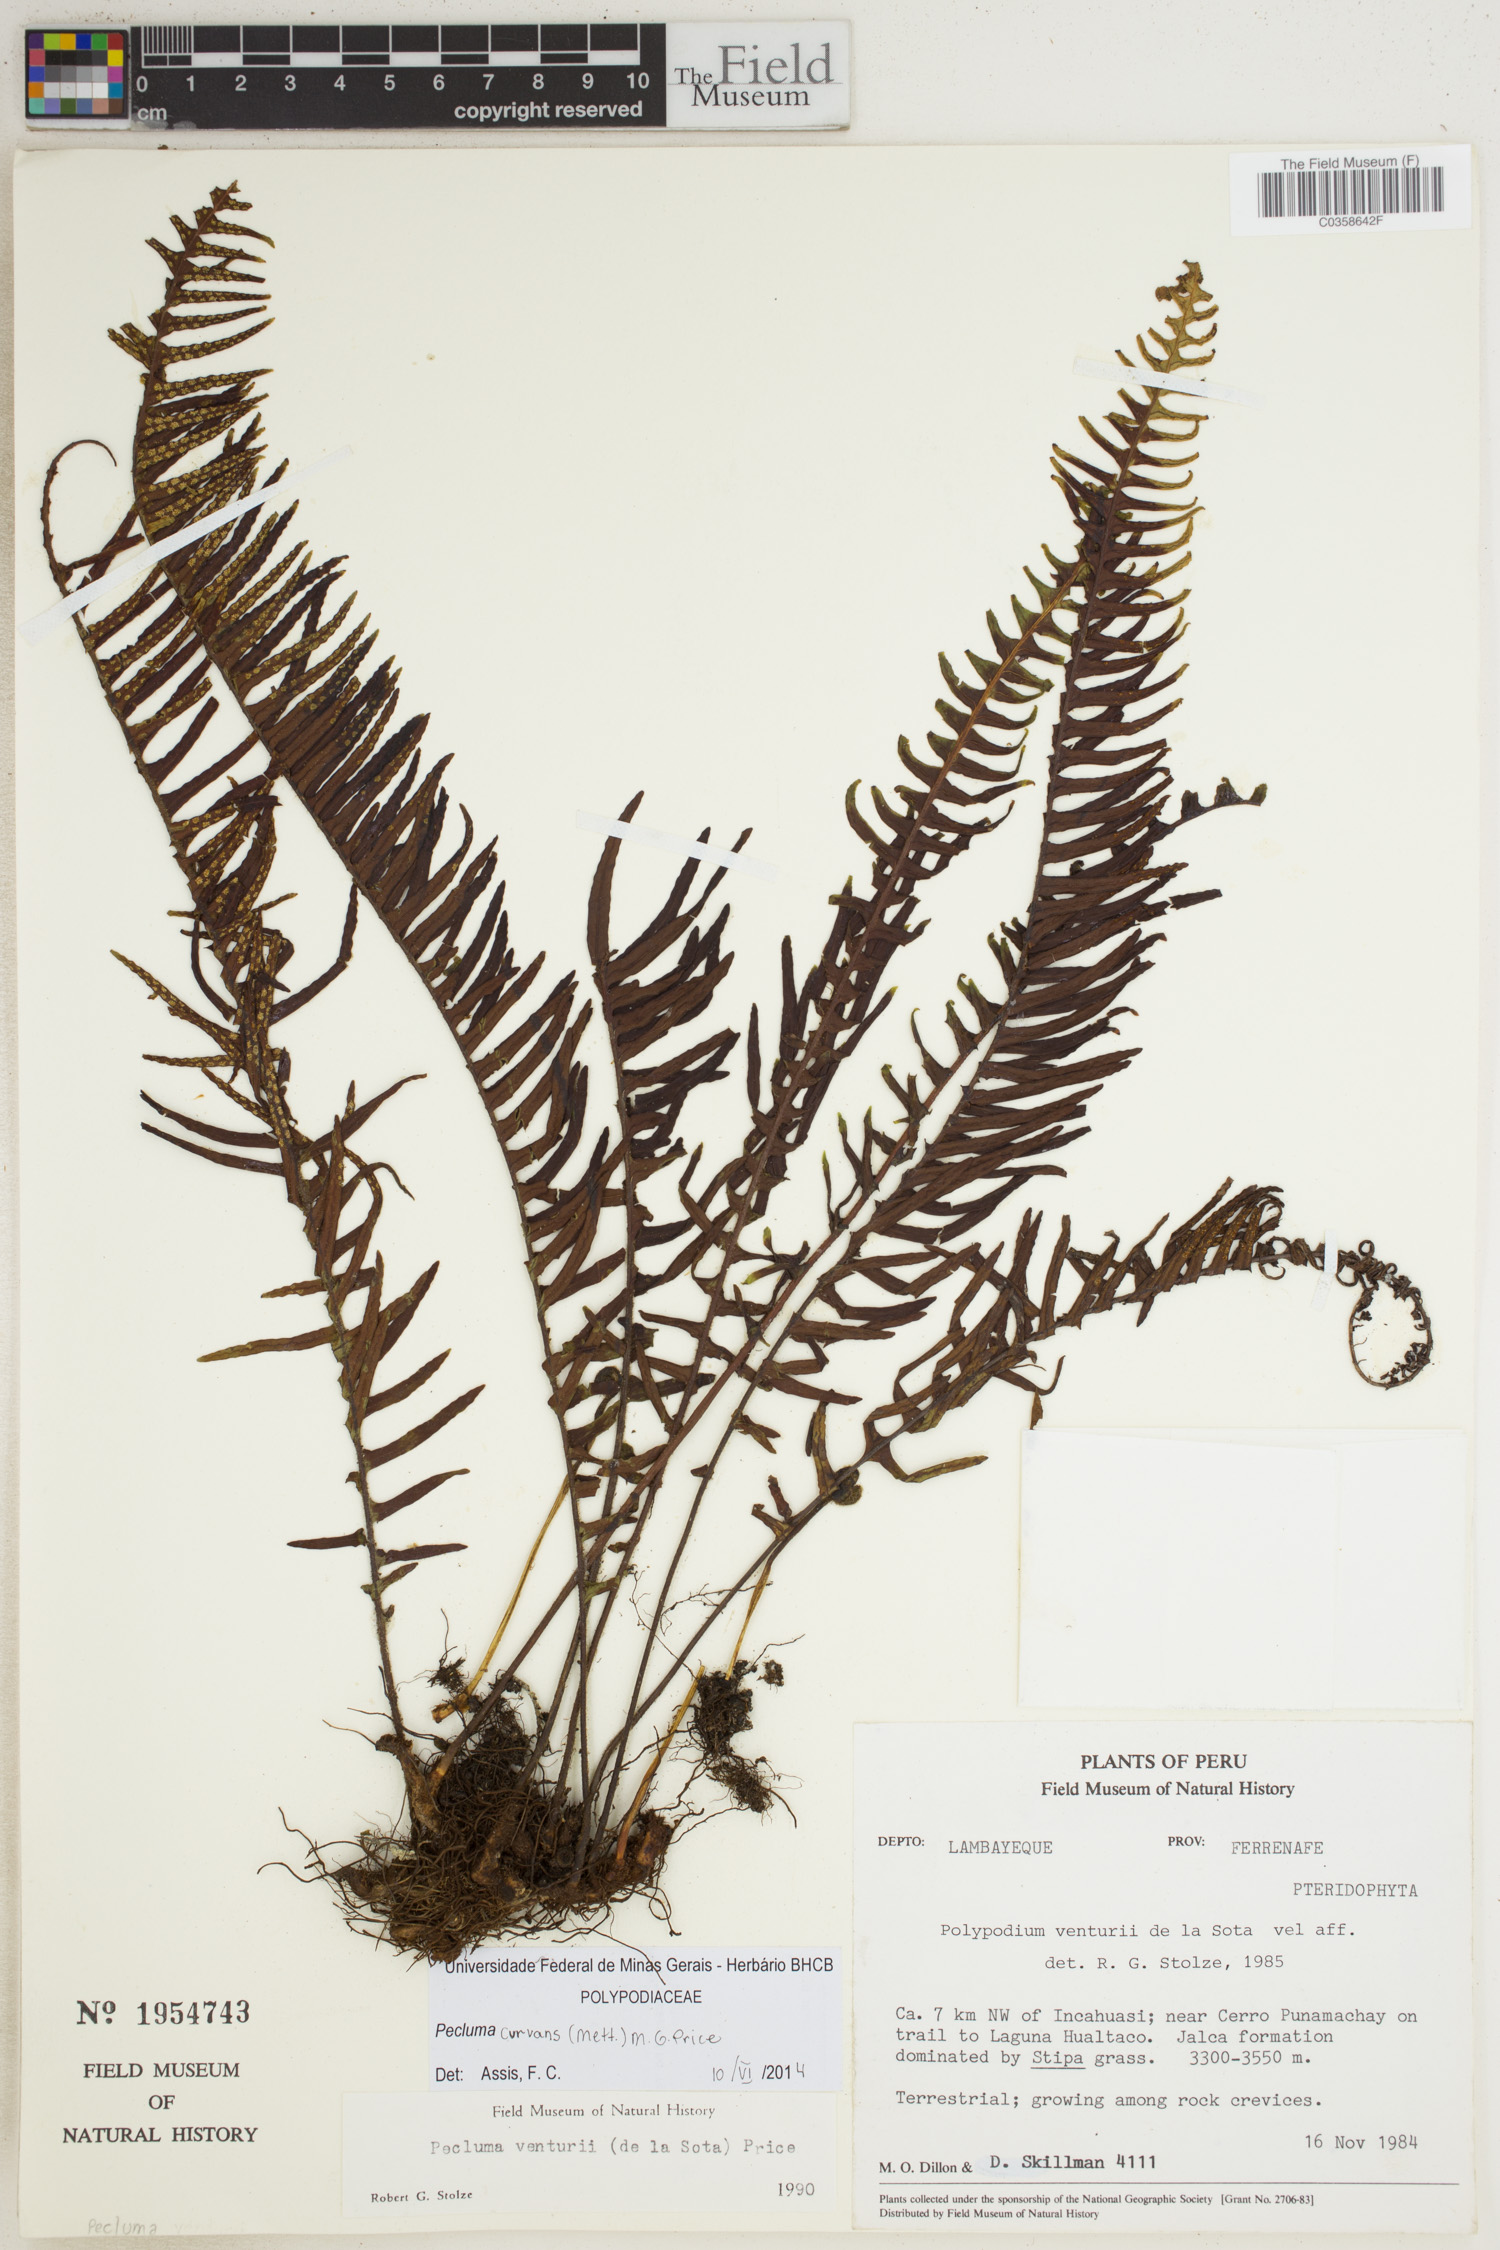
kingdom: Plantae
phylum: Tracheophyta
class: Polypodiopsida
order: Polypodiales
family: Polypodiaceae
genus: Pecluma
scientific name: Pecluma curvans
